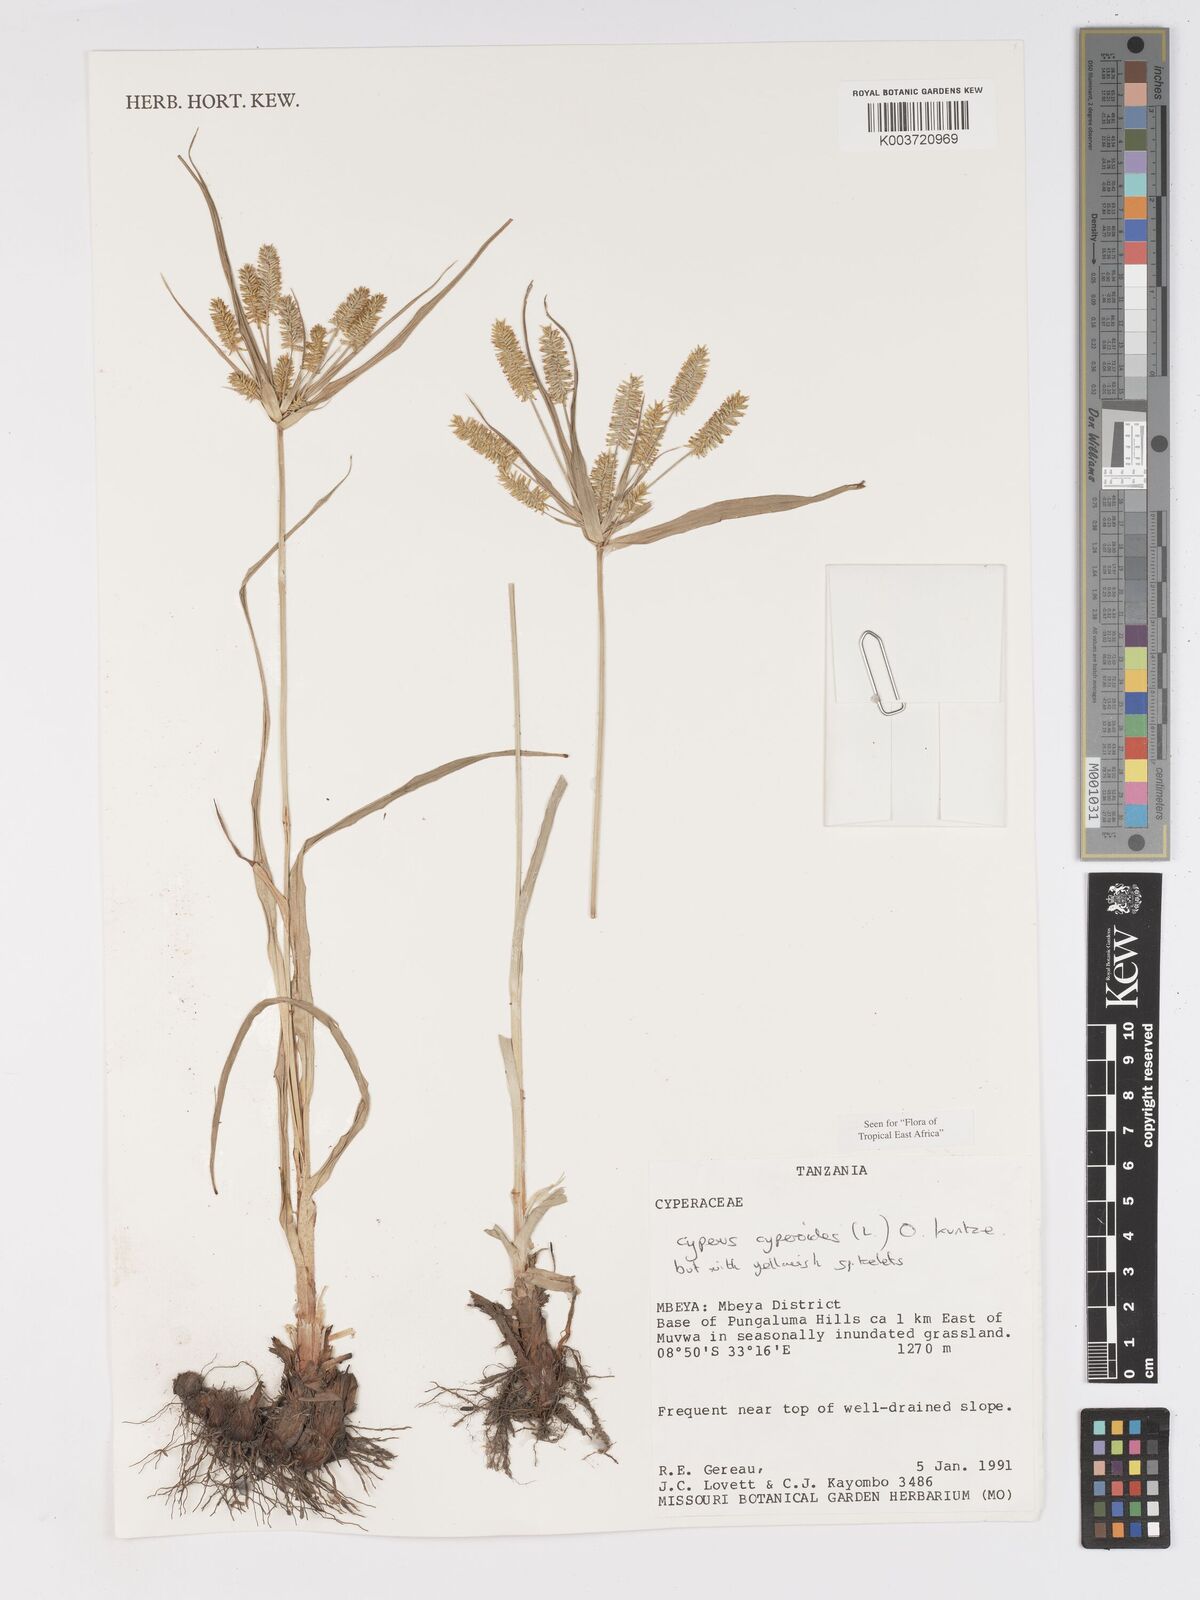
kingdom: Plantae
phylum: Tracheophyta
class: Liliopsida
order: Poales
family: Cyperaceae
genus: Cyperus
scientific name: Cyperus cyperoides
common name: Pacific island flat sedge
